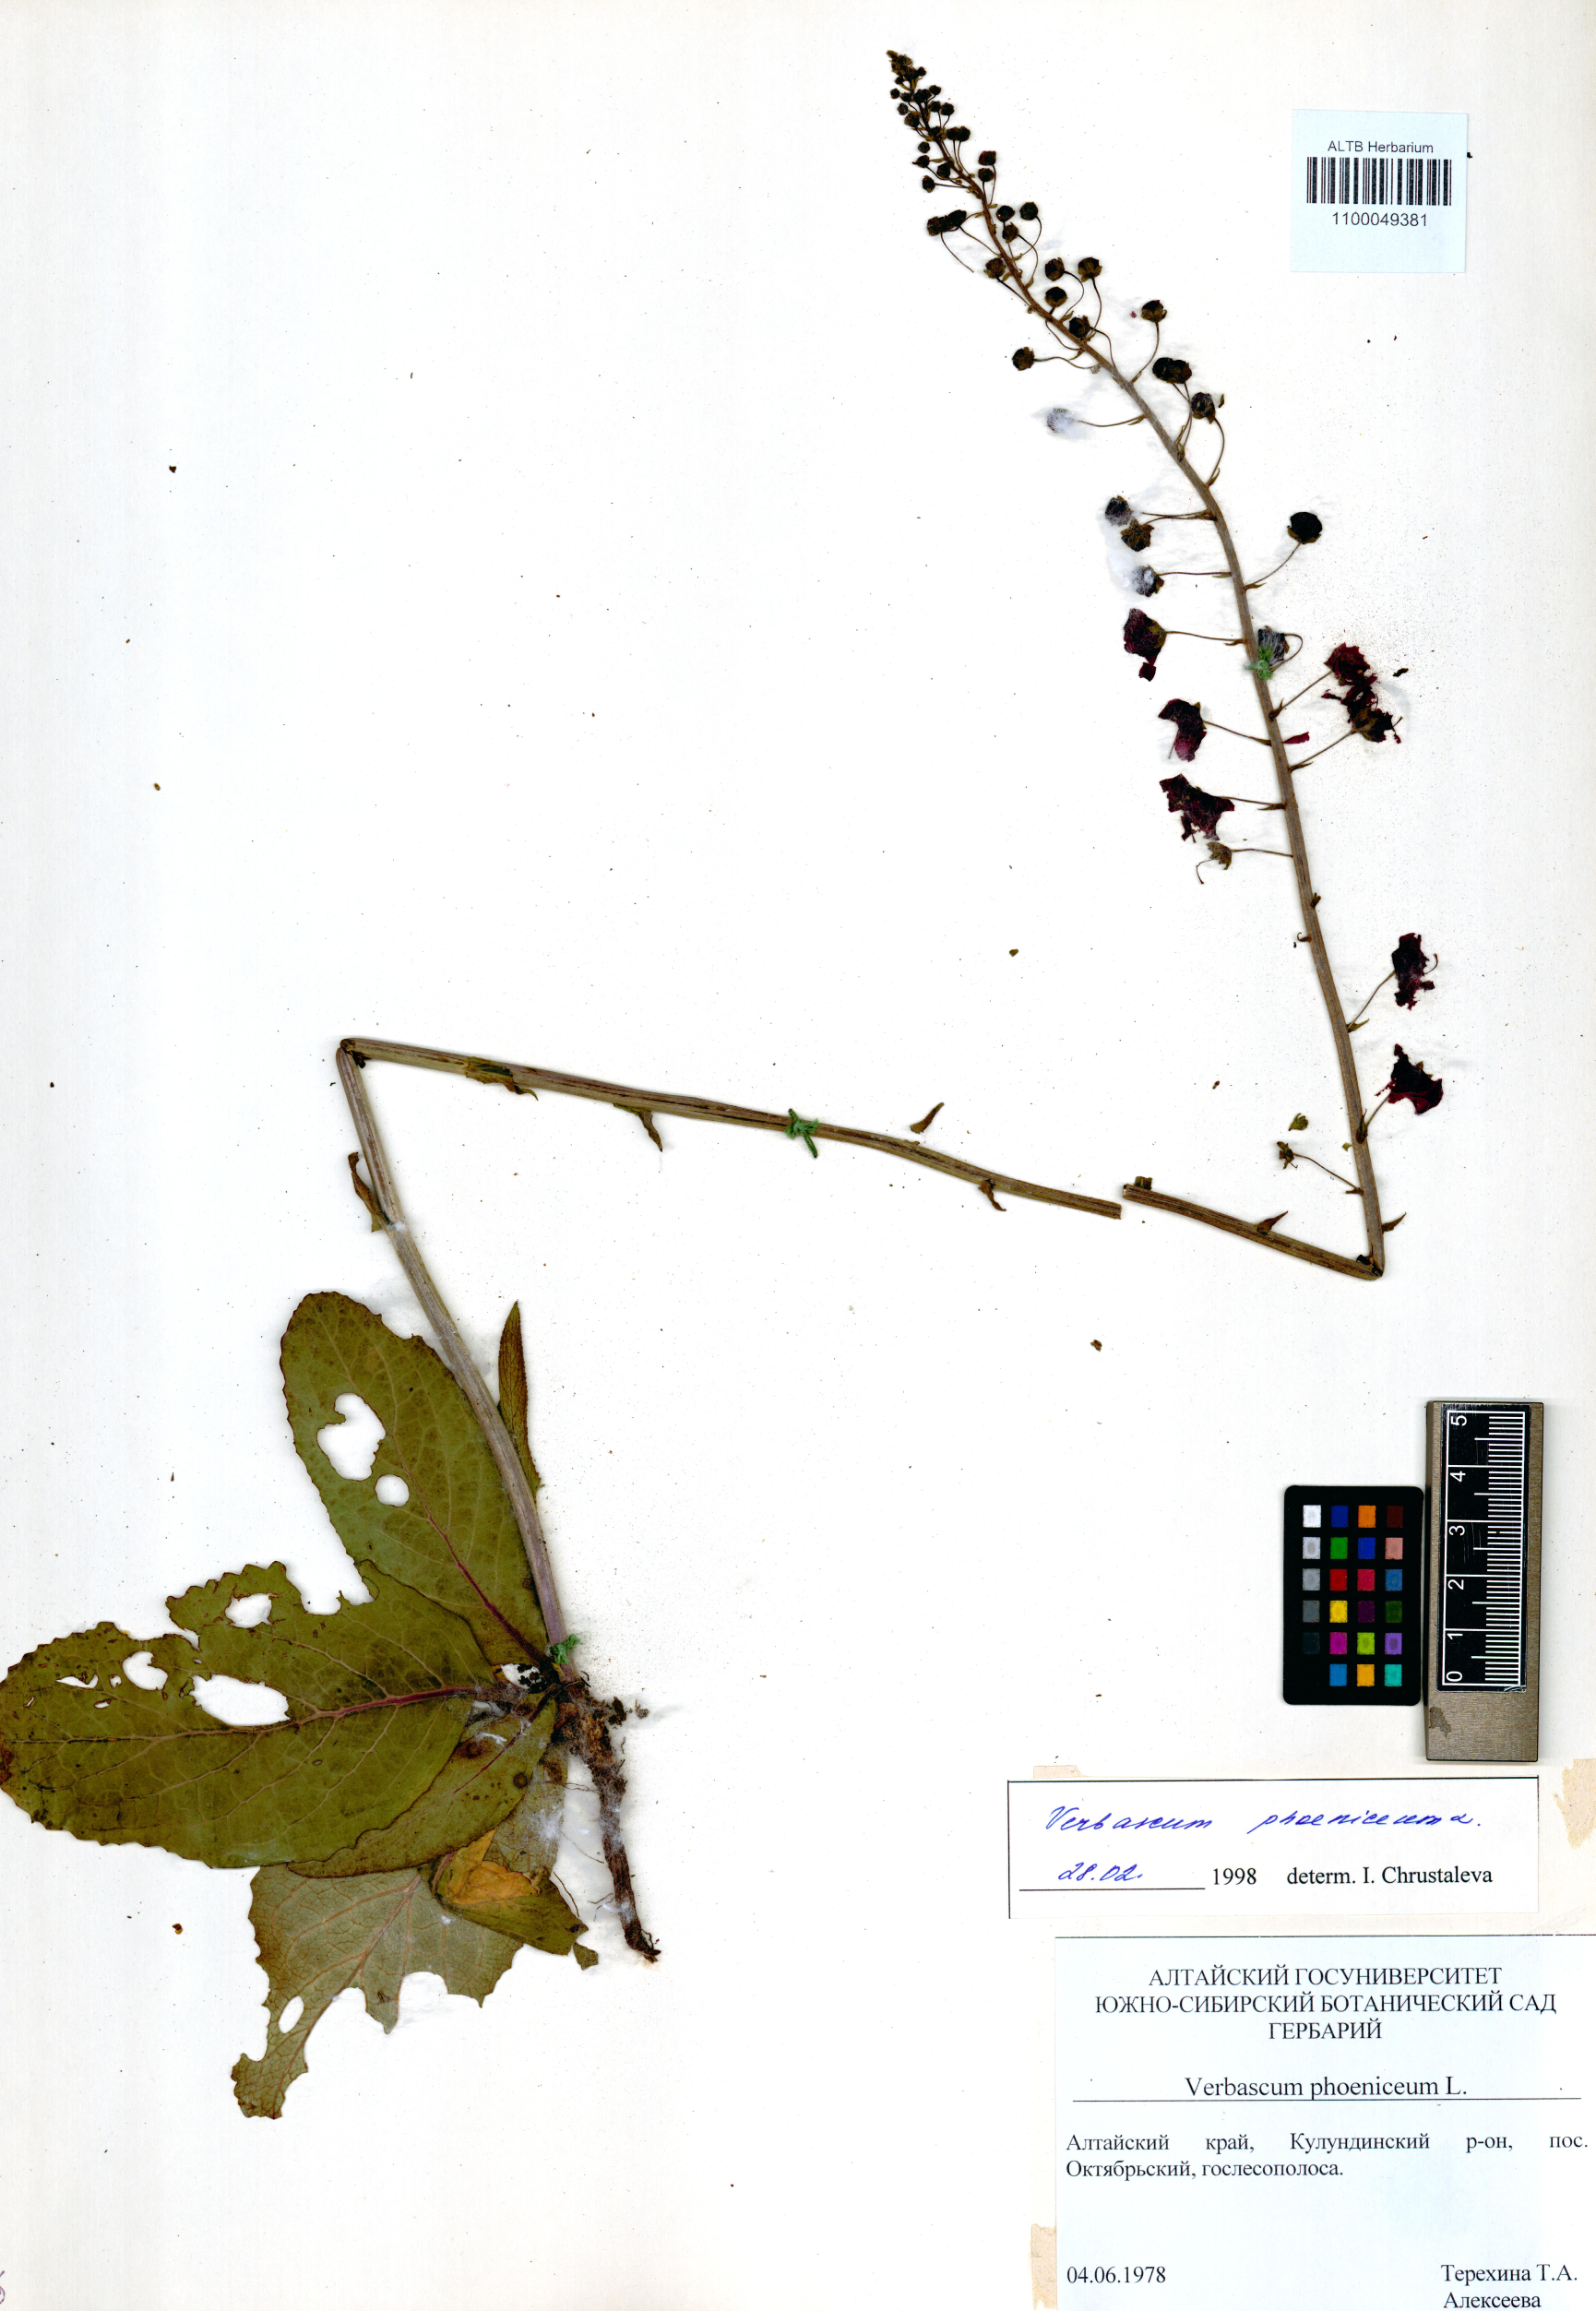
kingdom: Plantae
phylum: Tracheophyta
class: Magnoliopsida
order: Lamiales
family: Scrophulariaceae
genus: Verbascum
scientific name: Verbascum phoeniceum
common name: Purple mullein
